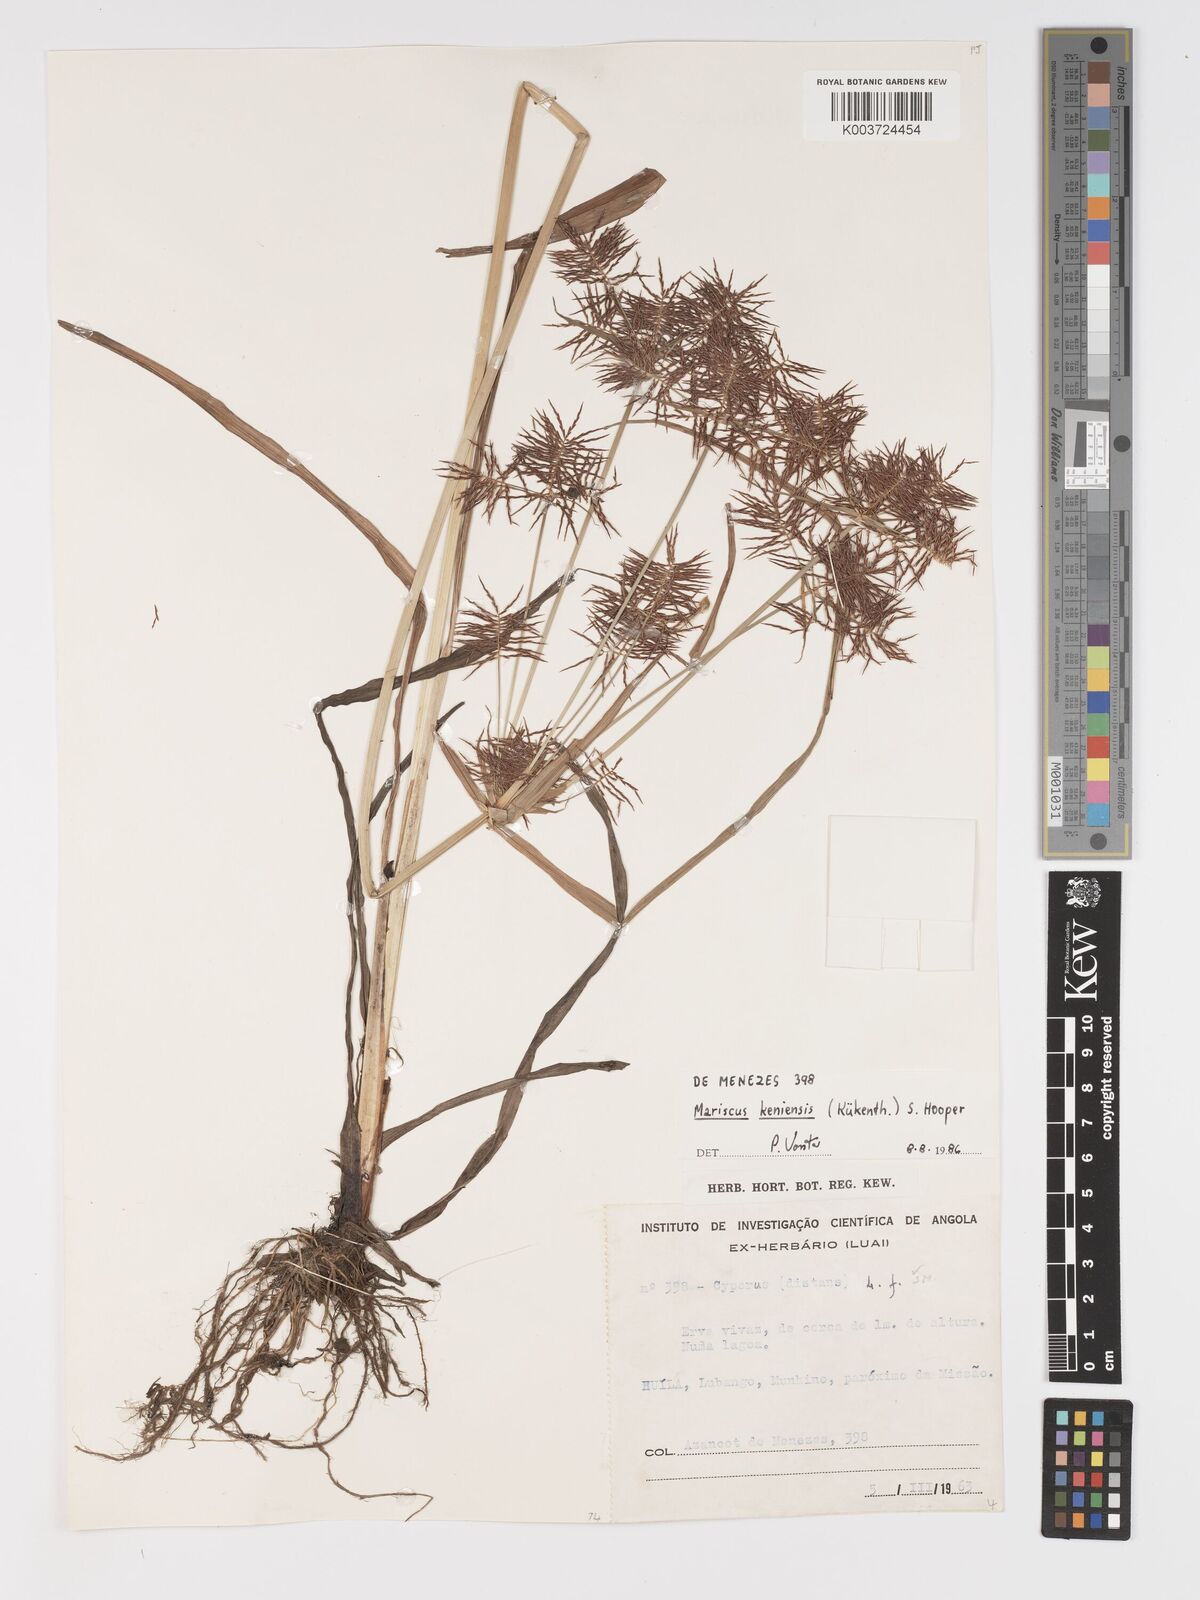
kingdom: Plantae
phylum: Tracheophyta
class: Liliopsida
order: Poales
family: Cyperaceae
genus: Cyperus
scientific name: Cyperus
